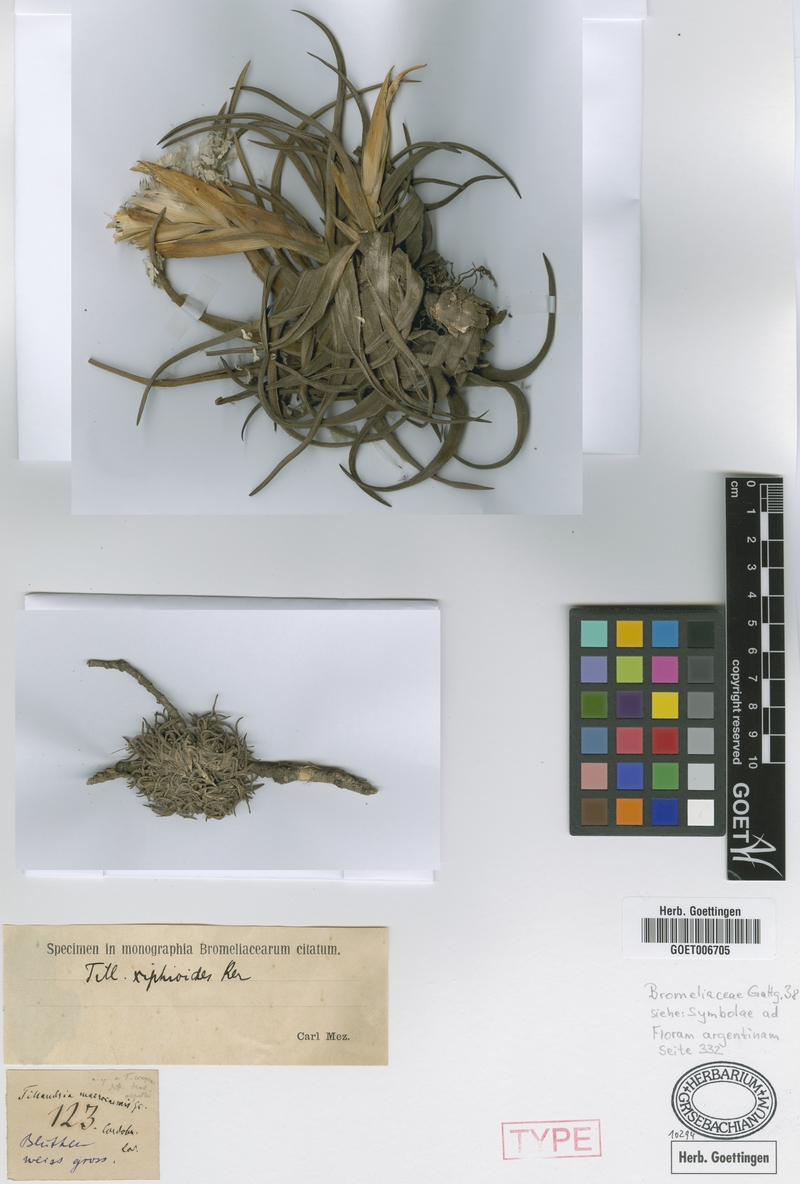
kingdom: Plantae
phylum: Tracheophyta
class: Liliopsida
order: Poales
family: Bromeliaceae
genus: Tillandsia
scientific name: Tillandsia xiphioides
